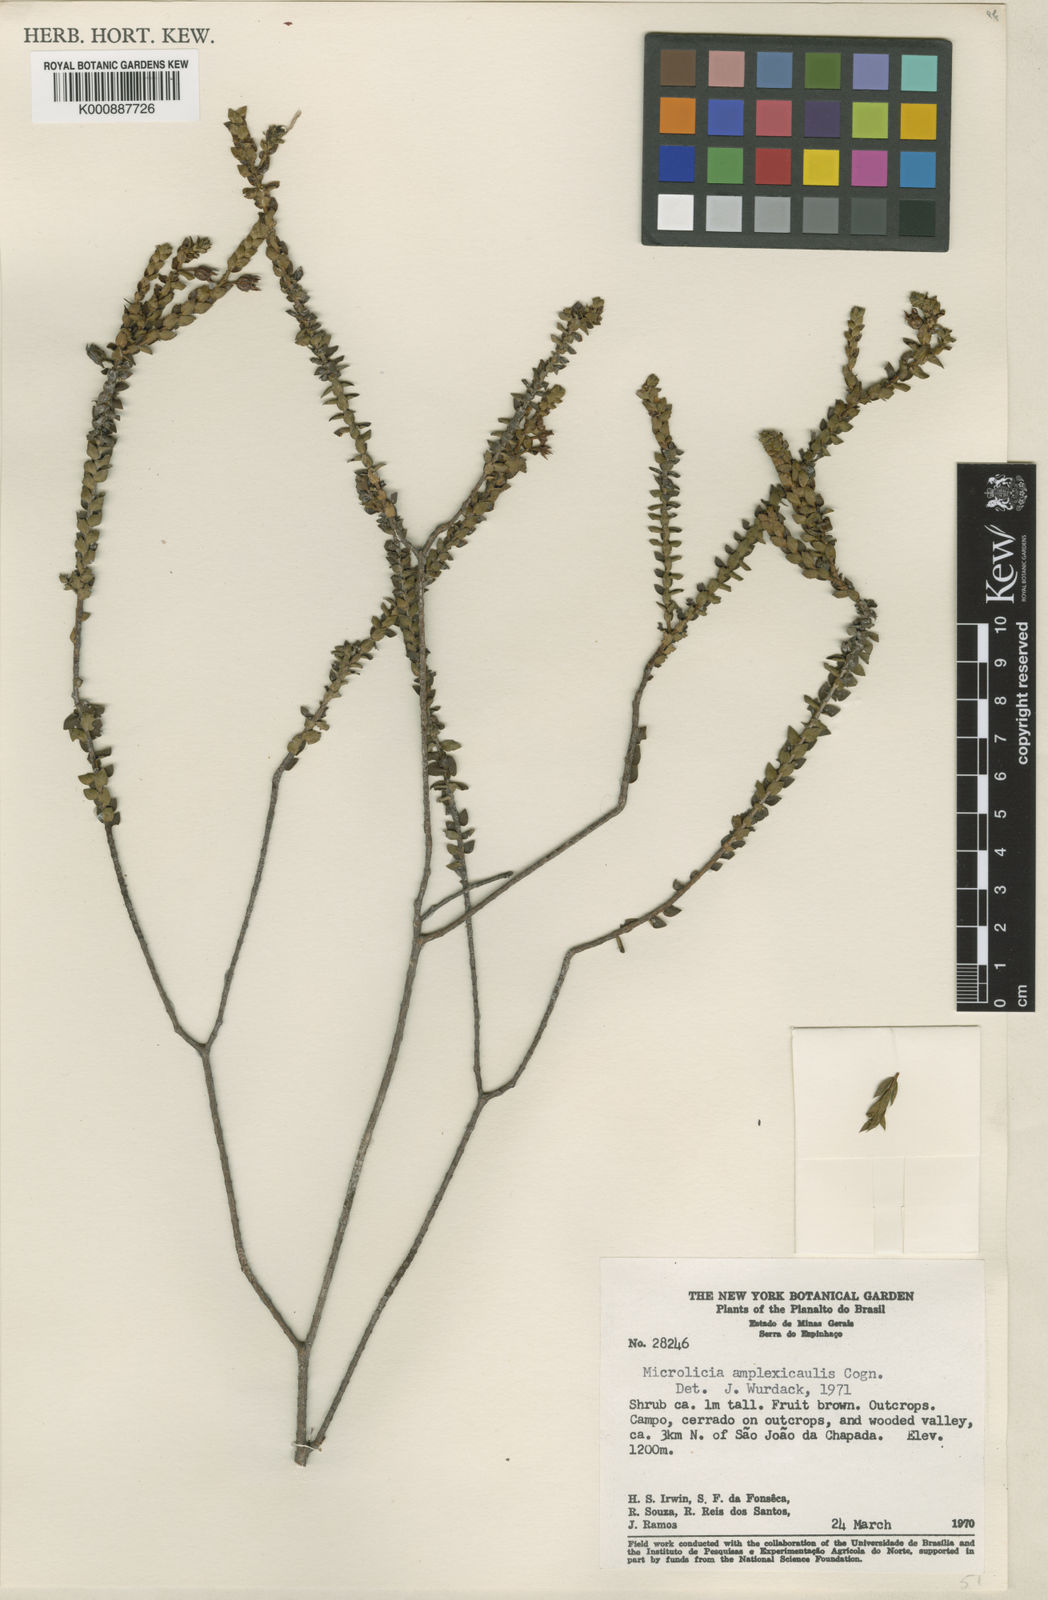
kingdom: Plantae
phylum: Tracheophyta
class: Magnoliopsida
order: Myrtales
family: Melastomataceae
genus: Microlicia
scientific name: Microlicia amplexicaulis
